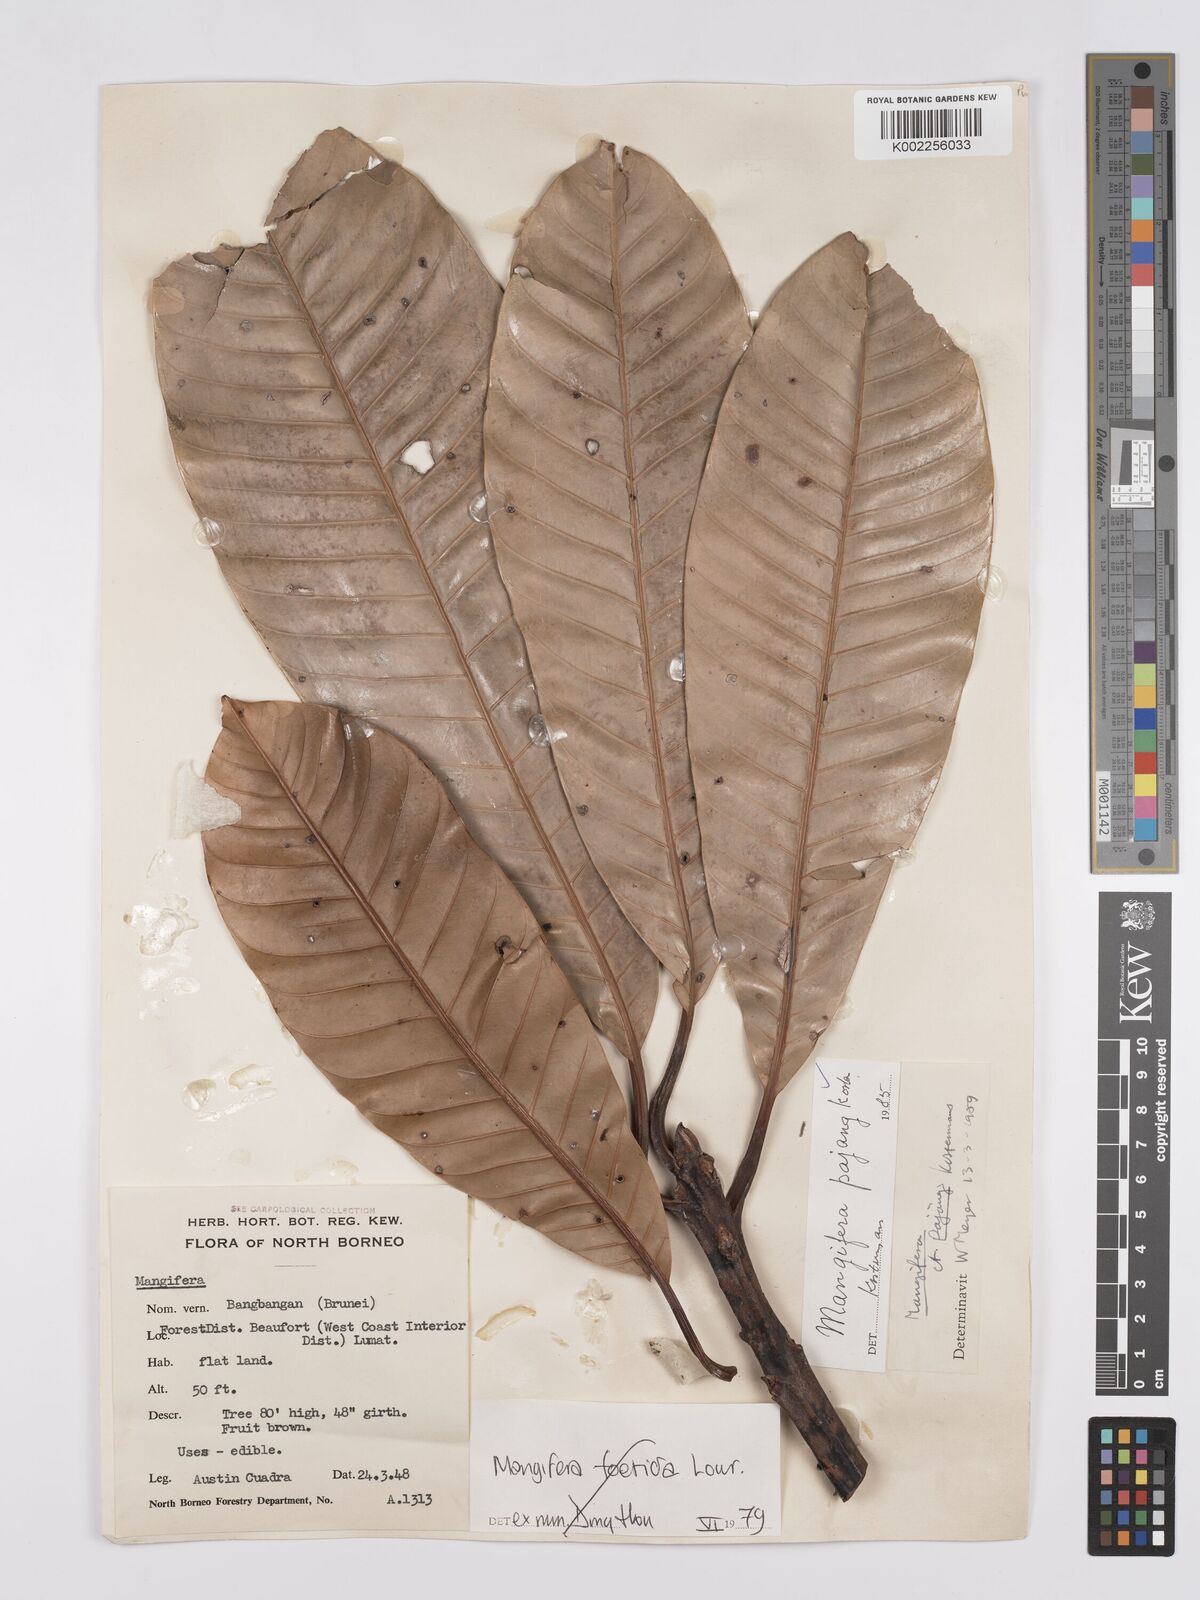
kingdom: Plantae
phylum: Tracheophyta
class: Magnoliopsida
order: Sapindales
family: Anacardiaceae
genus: Mangifera
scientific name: Mangifera pajang
